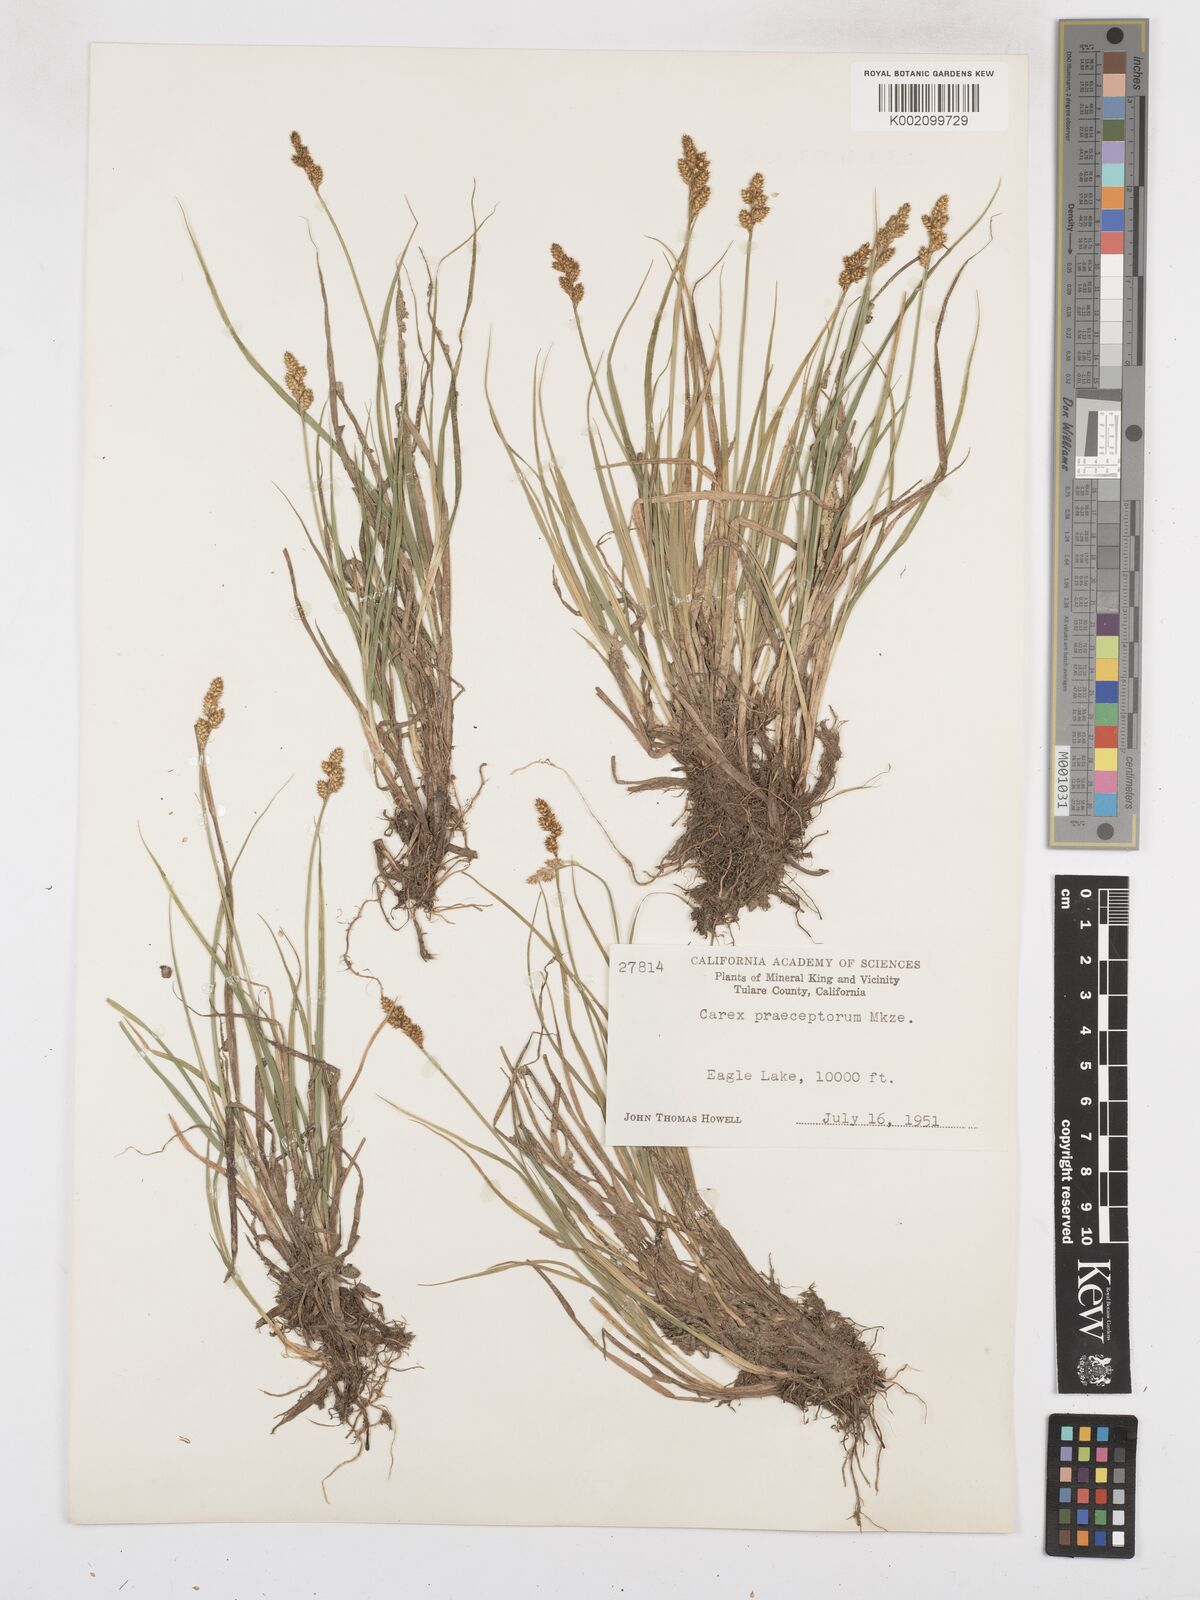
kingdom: Plantae
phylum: Tracheophyta
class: Liliopsida
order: Poales
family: Cyperaceae
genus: Carex
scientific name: Carex praeceptorum
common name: Early sedge
